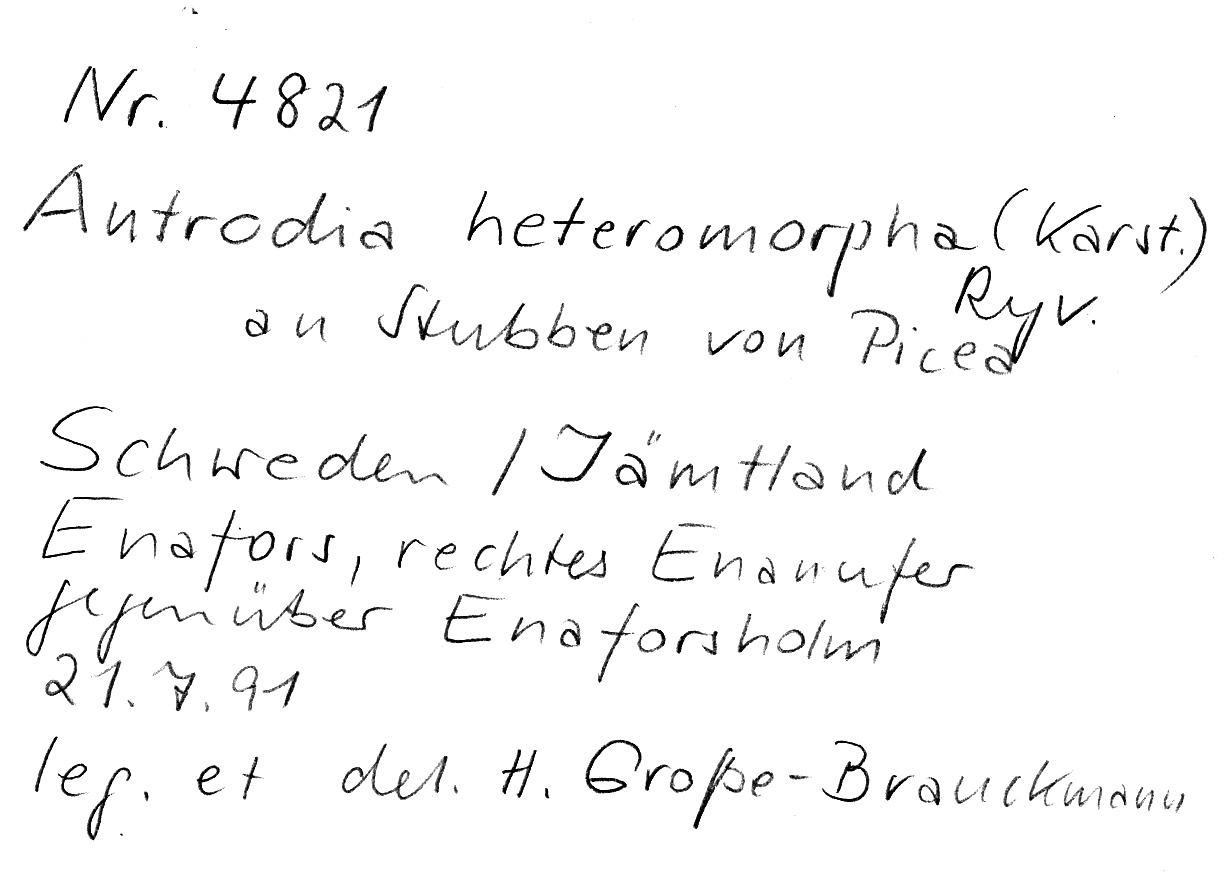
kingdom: Fungi
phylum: Basidiomycota
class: Agaricomycetes
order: Polyporales
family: Fomitopsidaceae
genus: Antrodia
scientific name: Antrodia heteromorpha
